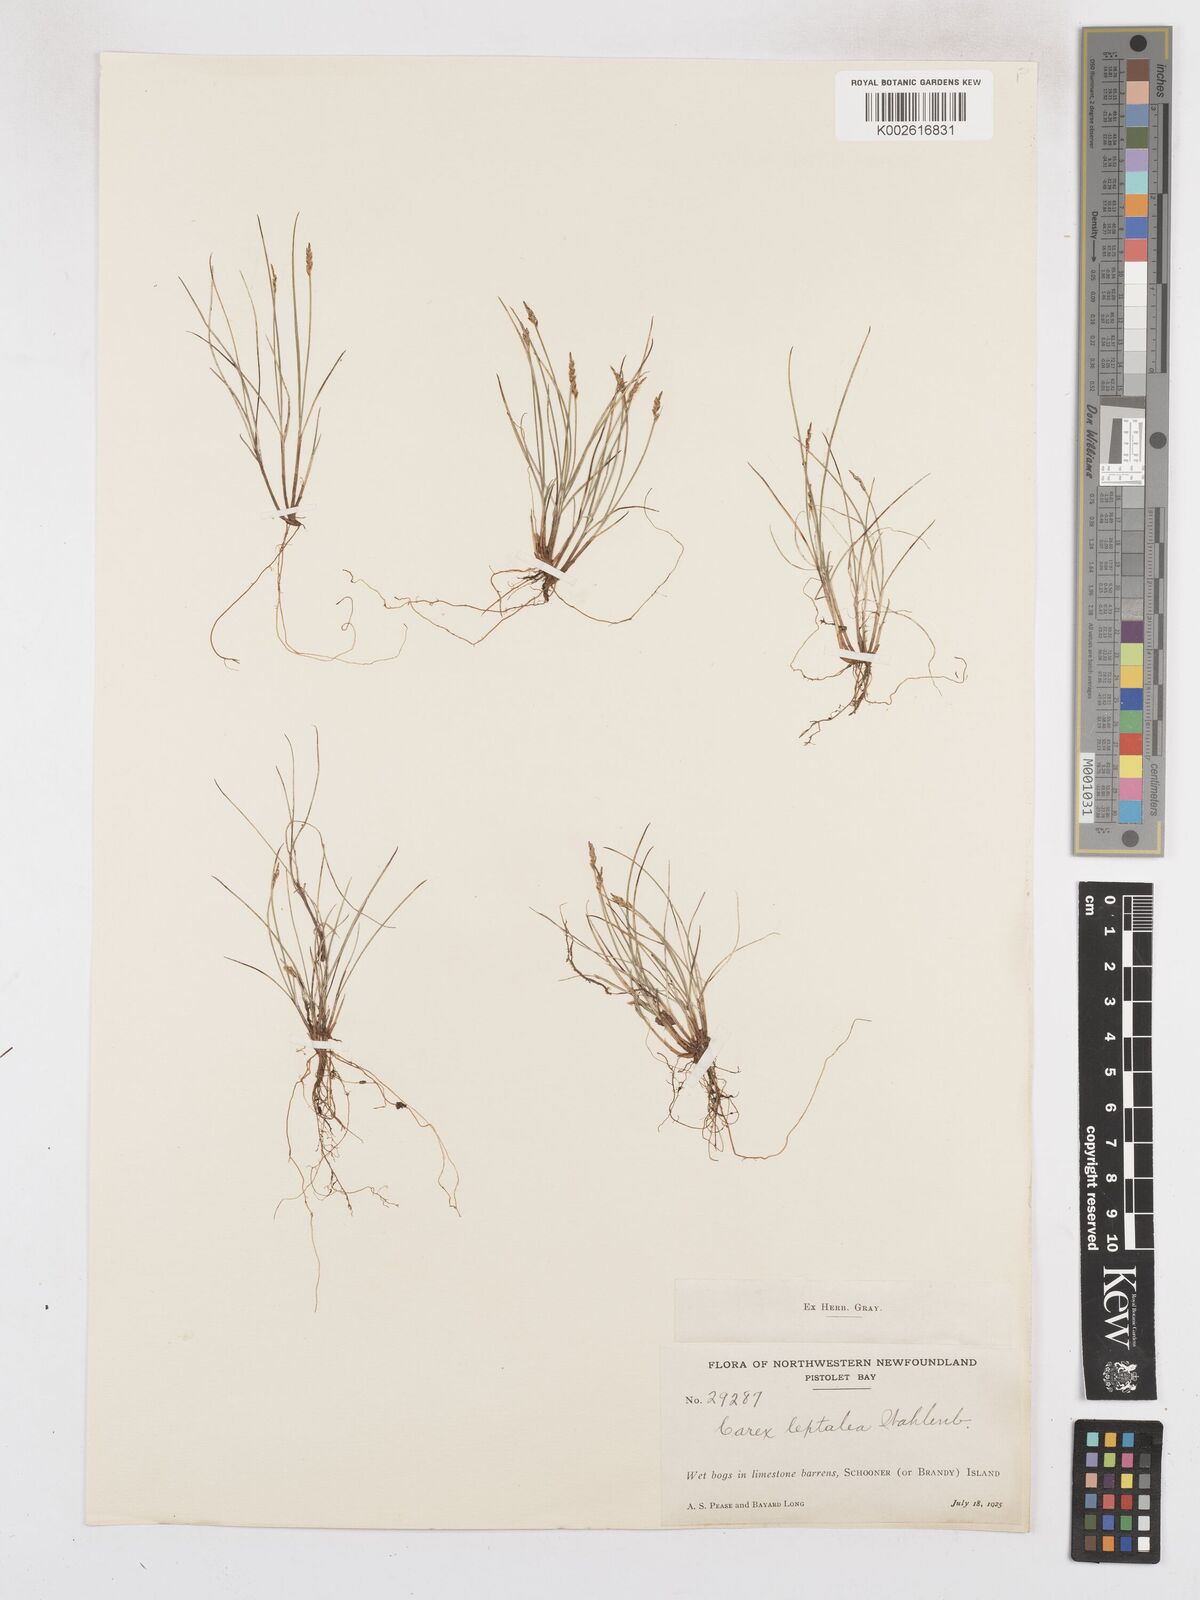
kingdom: Plantae
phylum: Tracheophyta
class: Liliopsida
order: Poales
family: Cyperaceae
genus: Carex
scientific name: Carex leptalea
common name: Bristly-stalked sedge
